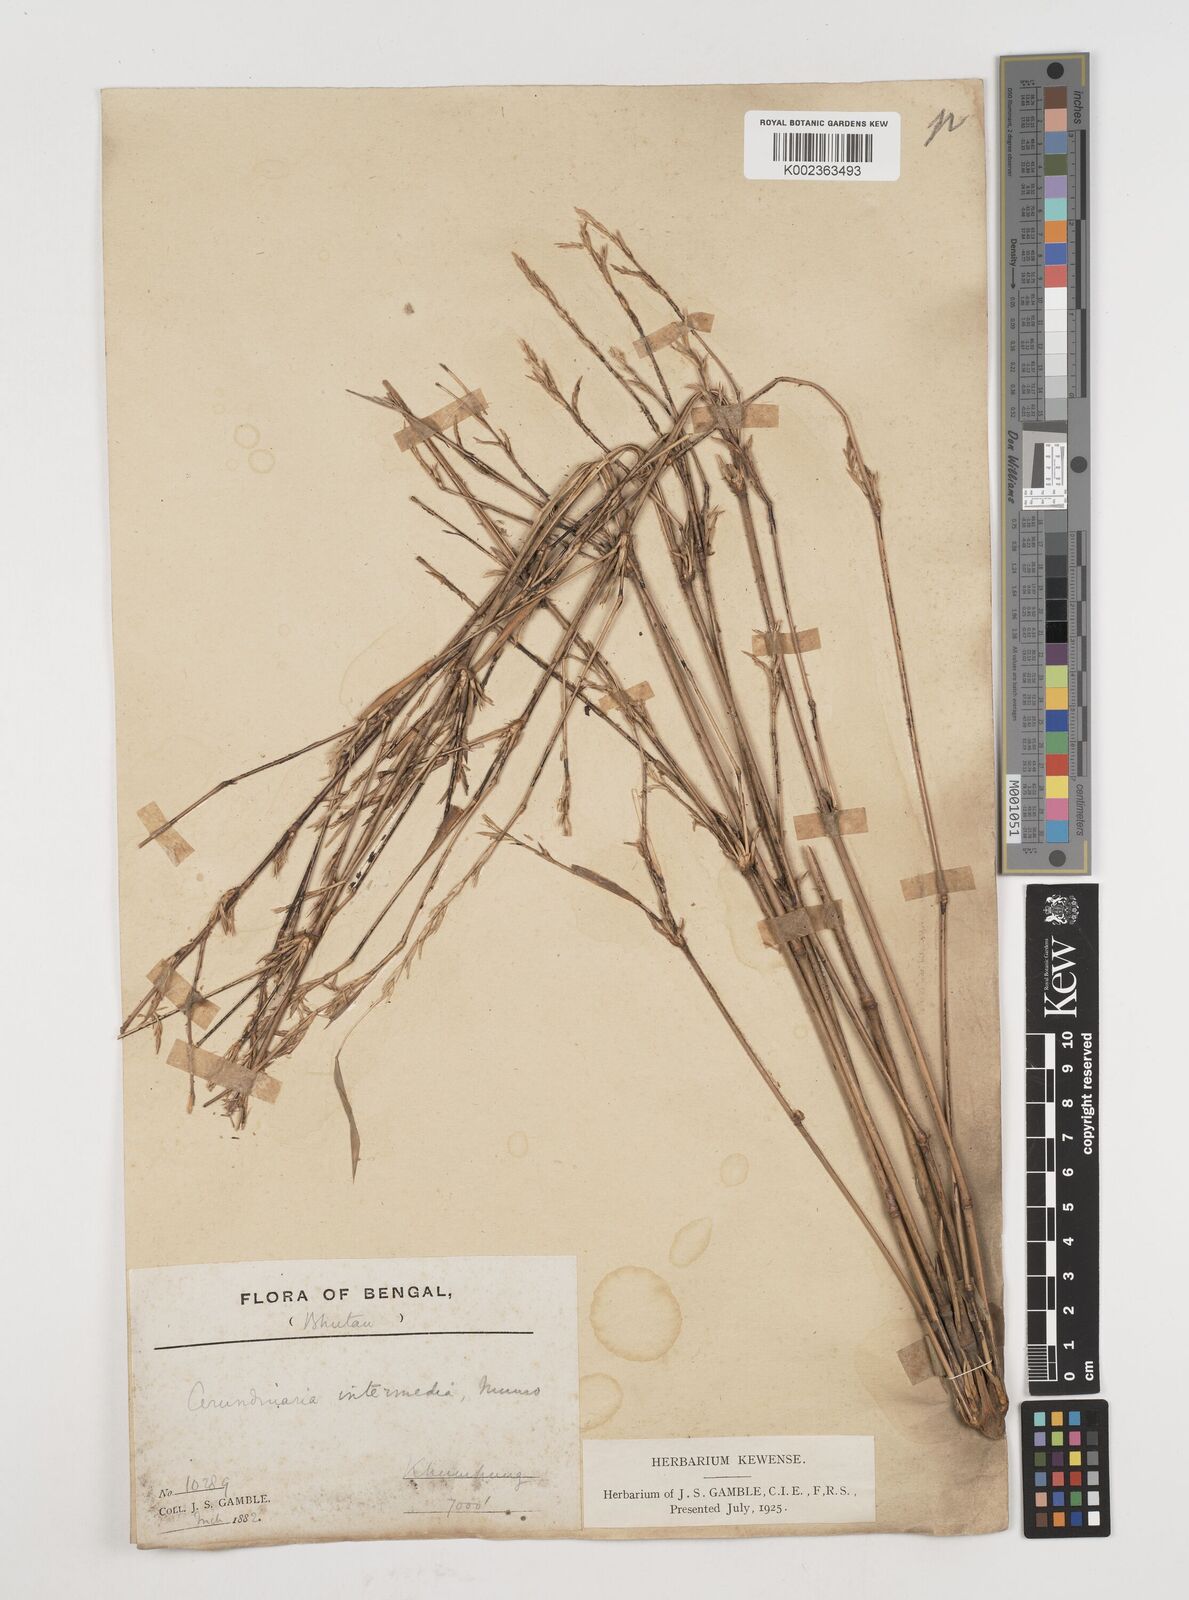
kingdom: Plantae
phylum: Tracheophyta
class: Liliopsida
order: Poales
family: Poaceae
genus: Himalayacalamus
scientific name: Himalayacalamus
